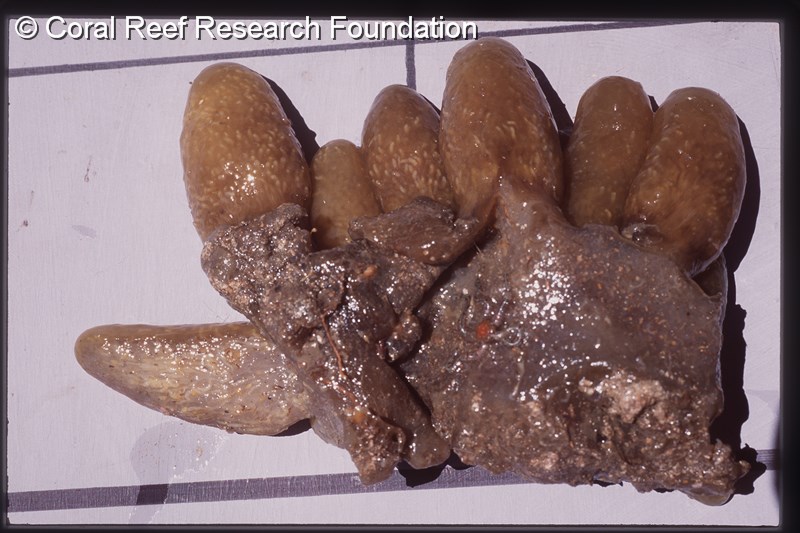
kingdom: Animalia
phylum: Chordata
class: Ascidiacea
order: Aplousobranchia
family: Pseudodistomidae
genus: Pseudodistoma
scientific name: Pseudodistoma
